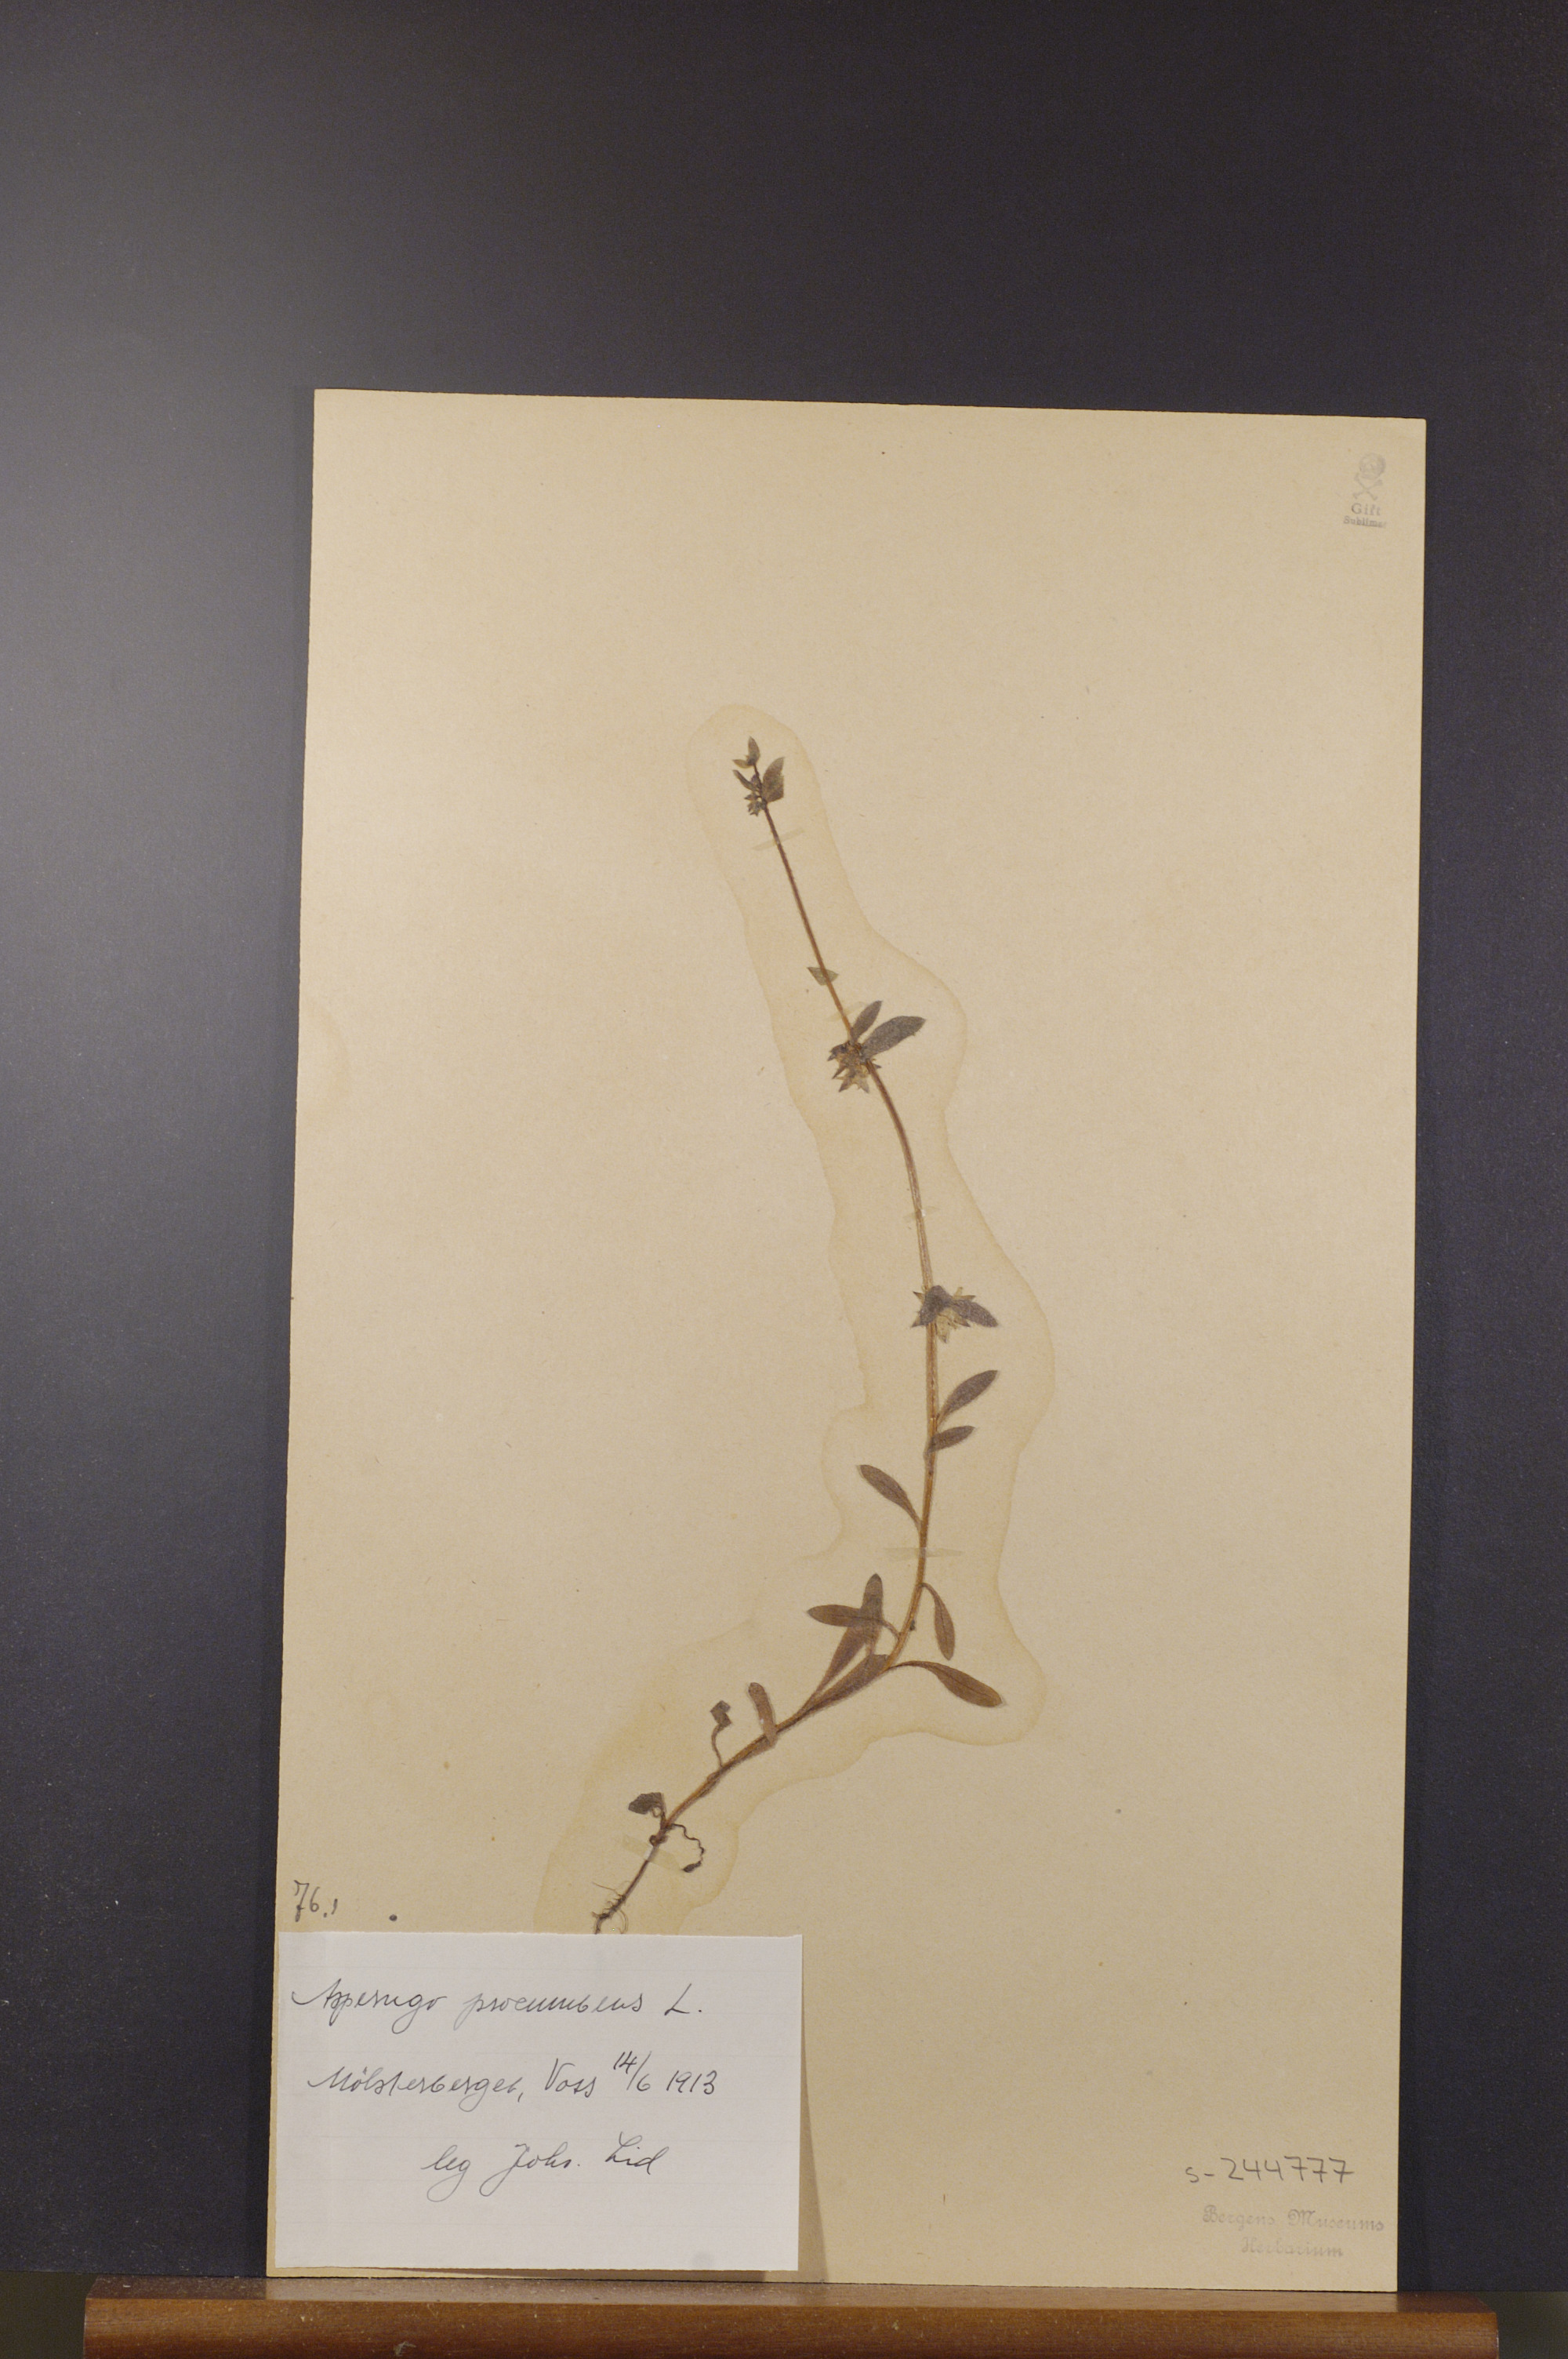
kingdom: Plantae
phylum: Tracheophyta
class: Magnoliopsida
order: Boraginales
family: Boraginaceae
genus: Asperugo
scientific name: Asperugo procumbens
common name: Madwort
